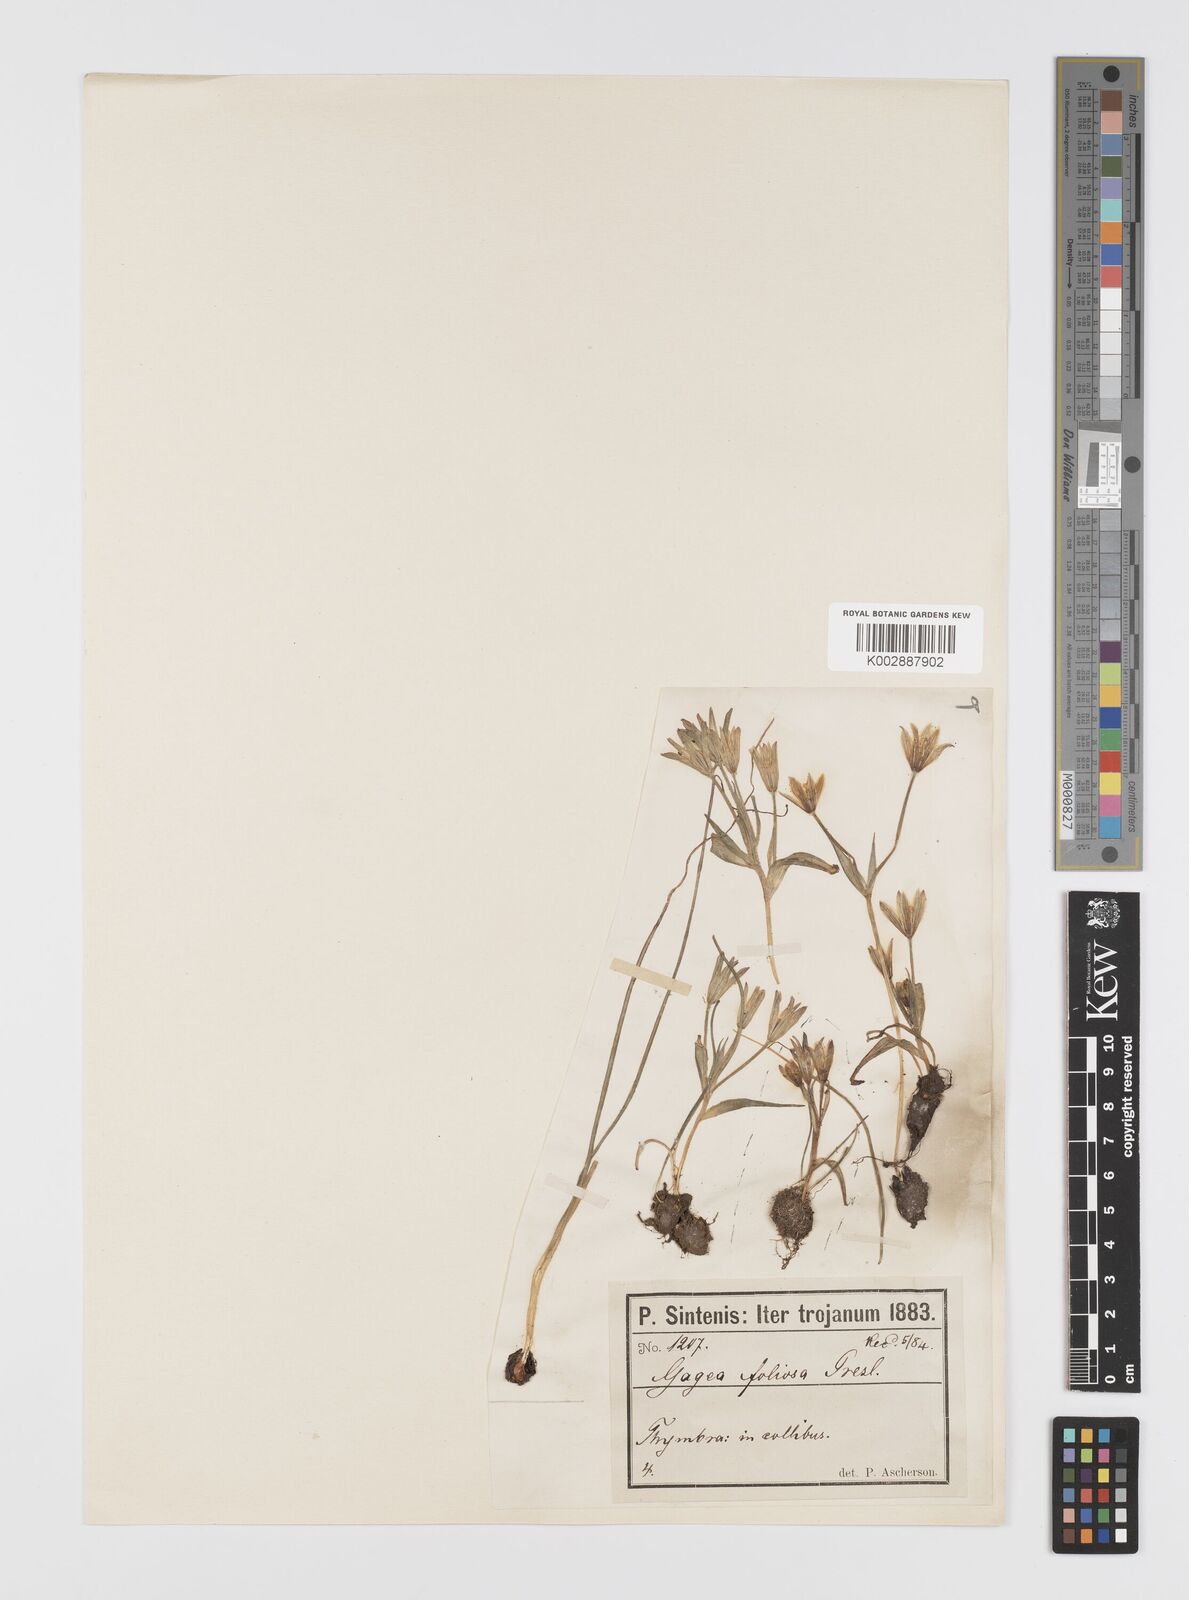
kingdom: Plantae
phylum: Tracheophyta
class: Liliopsida
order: Liliales
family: Liliaceae
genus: Gagea
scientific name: Gagea peduncularis
